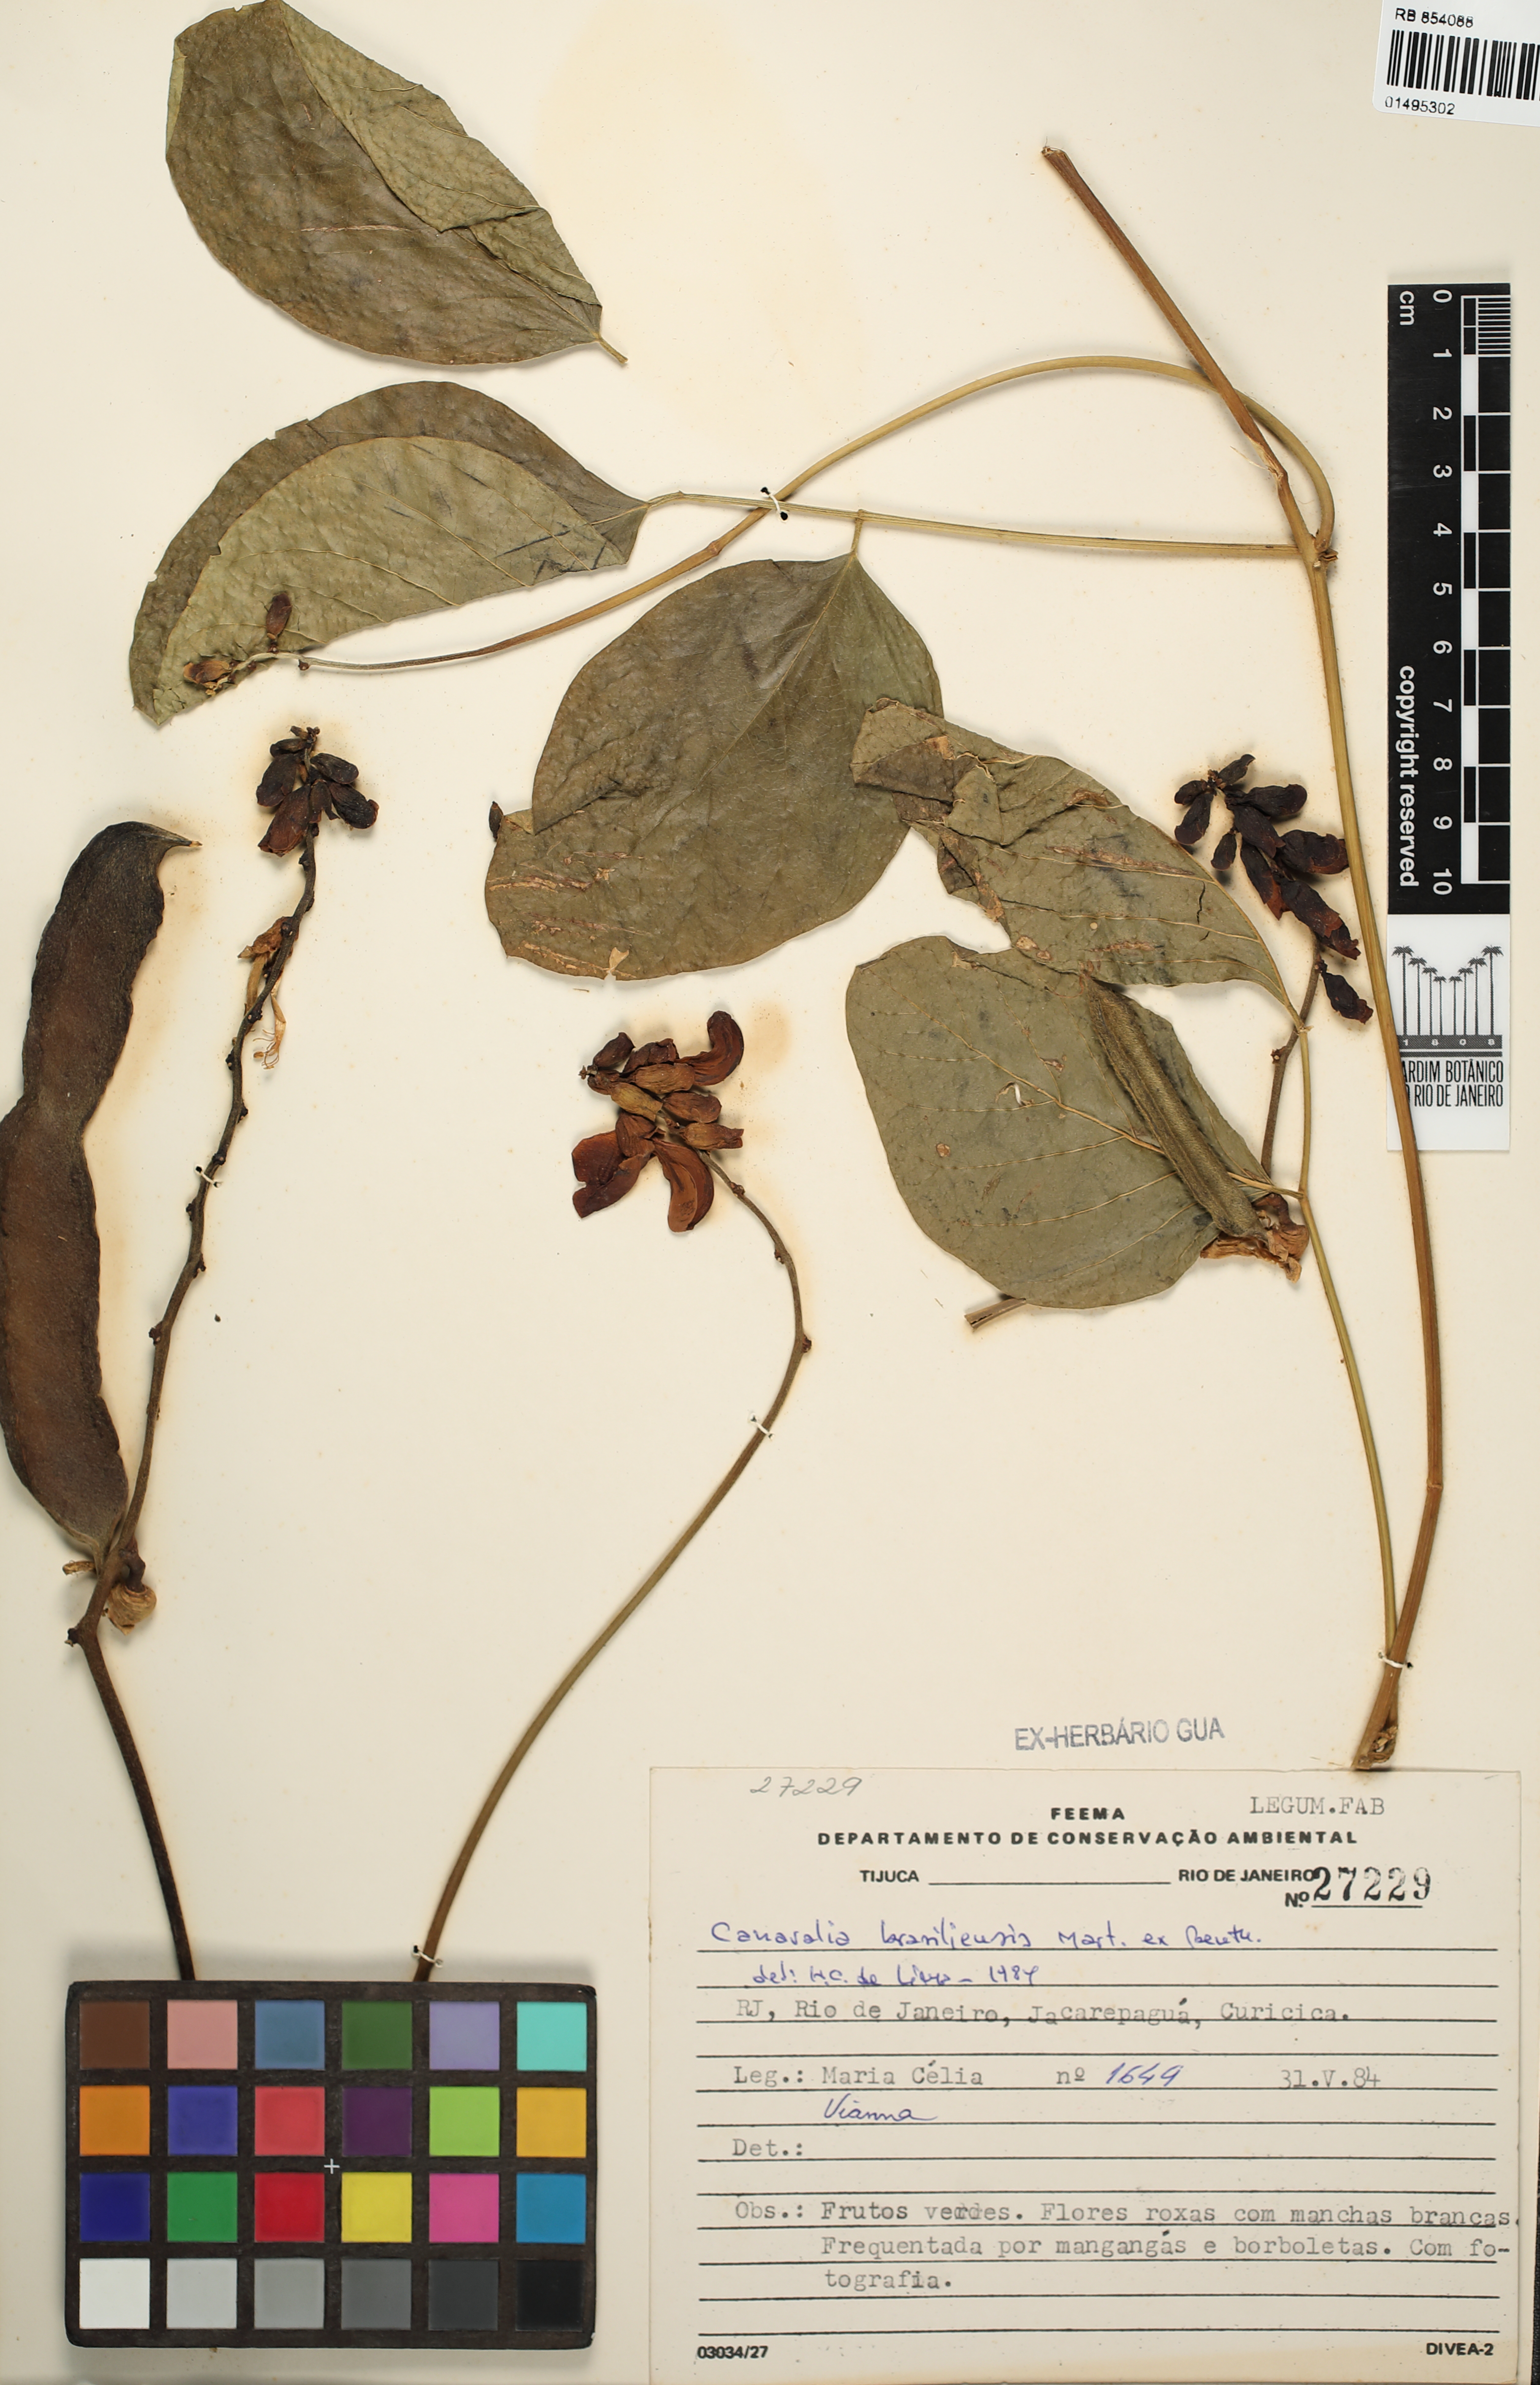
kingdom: Plantae
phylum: Tracheophyta
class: Magnoliopsida
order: Fabales
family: Fabaceae
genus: Canavalia
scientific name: Canavalia brasiliensis
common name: Barbicou-bean
